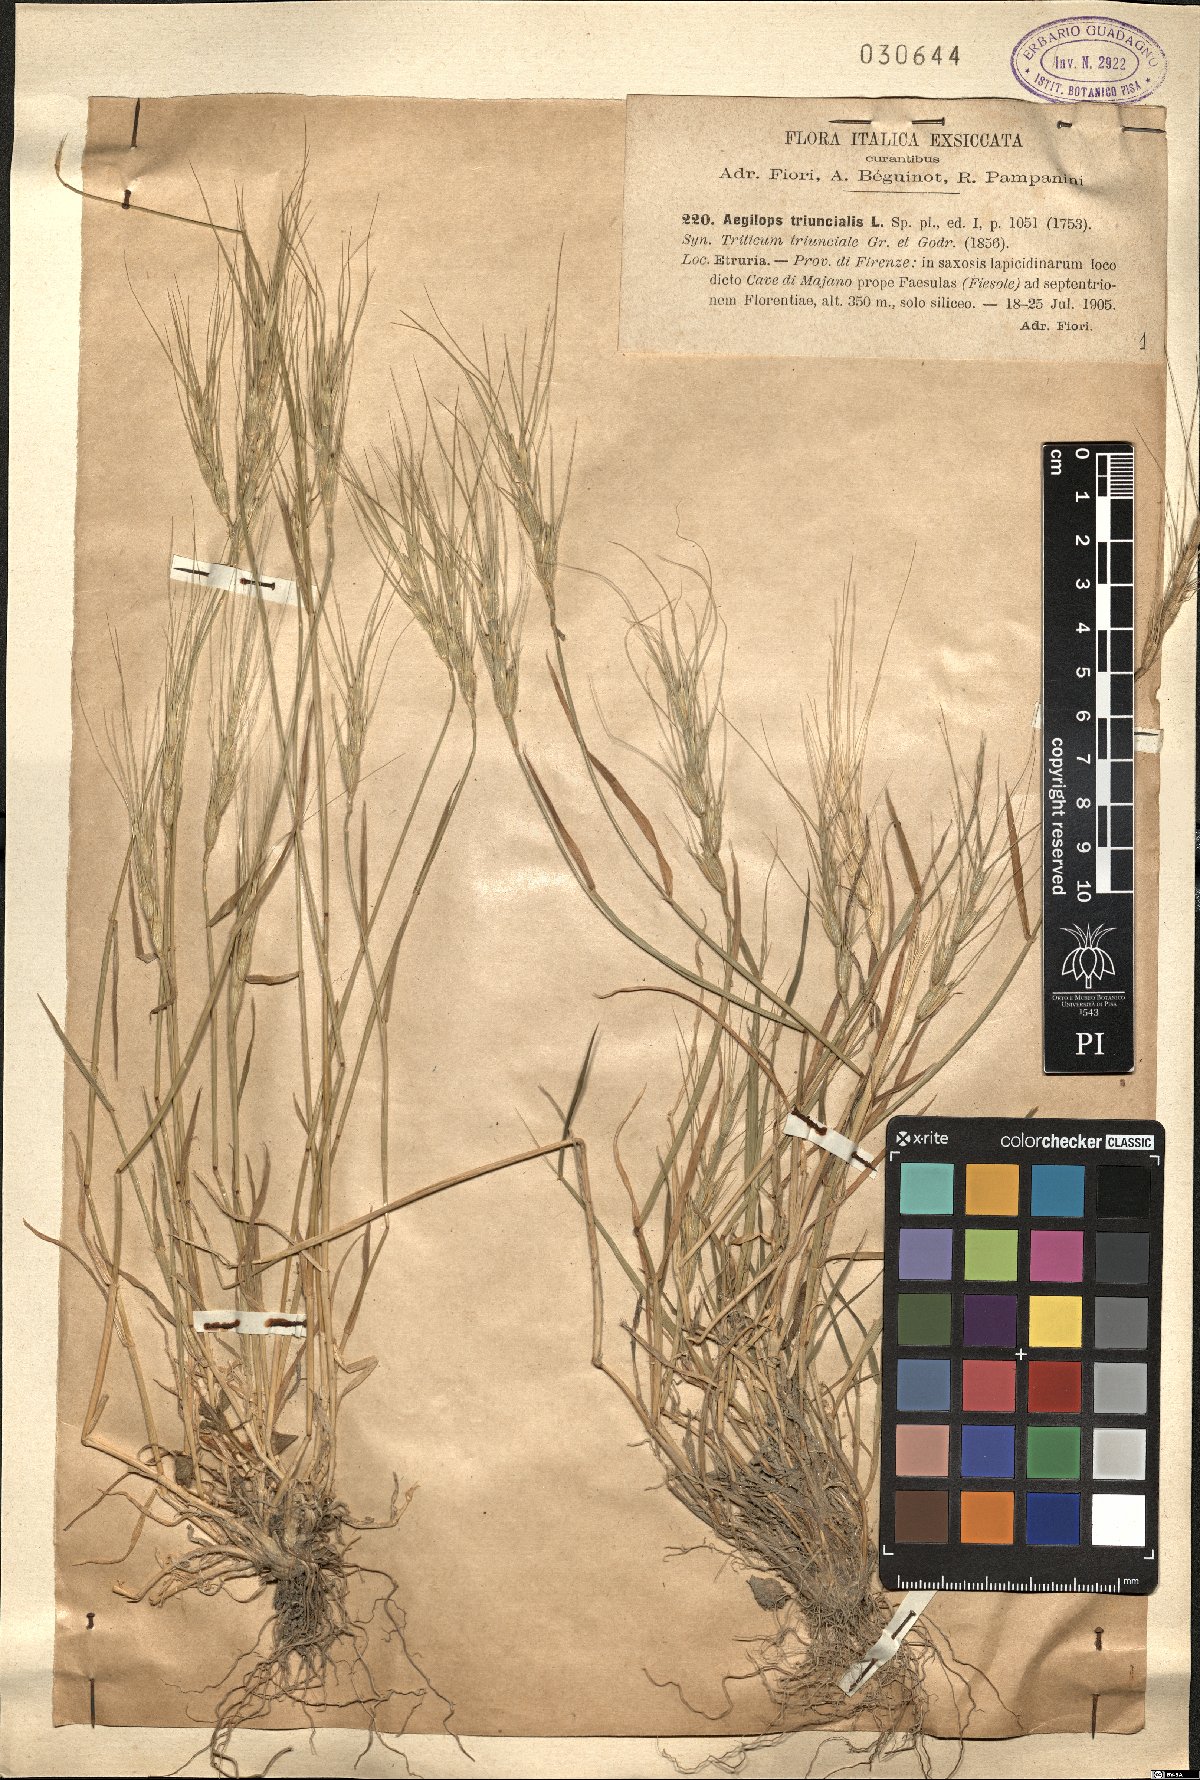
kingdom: Plantae
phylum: Tracheophyta
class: Liliopsida
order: Poales
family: Poaceae
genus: Aegilops
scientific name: Aegilops triuncialis
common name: Barb goat grass
